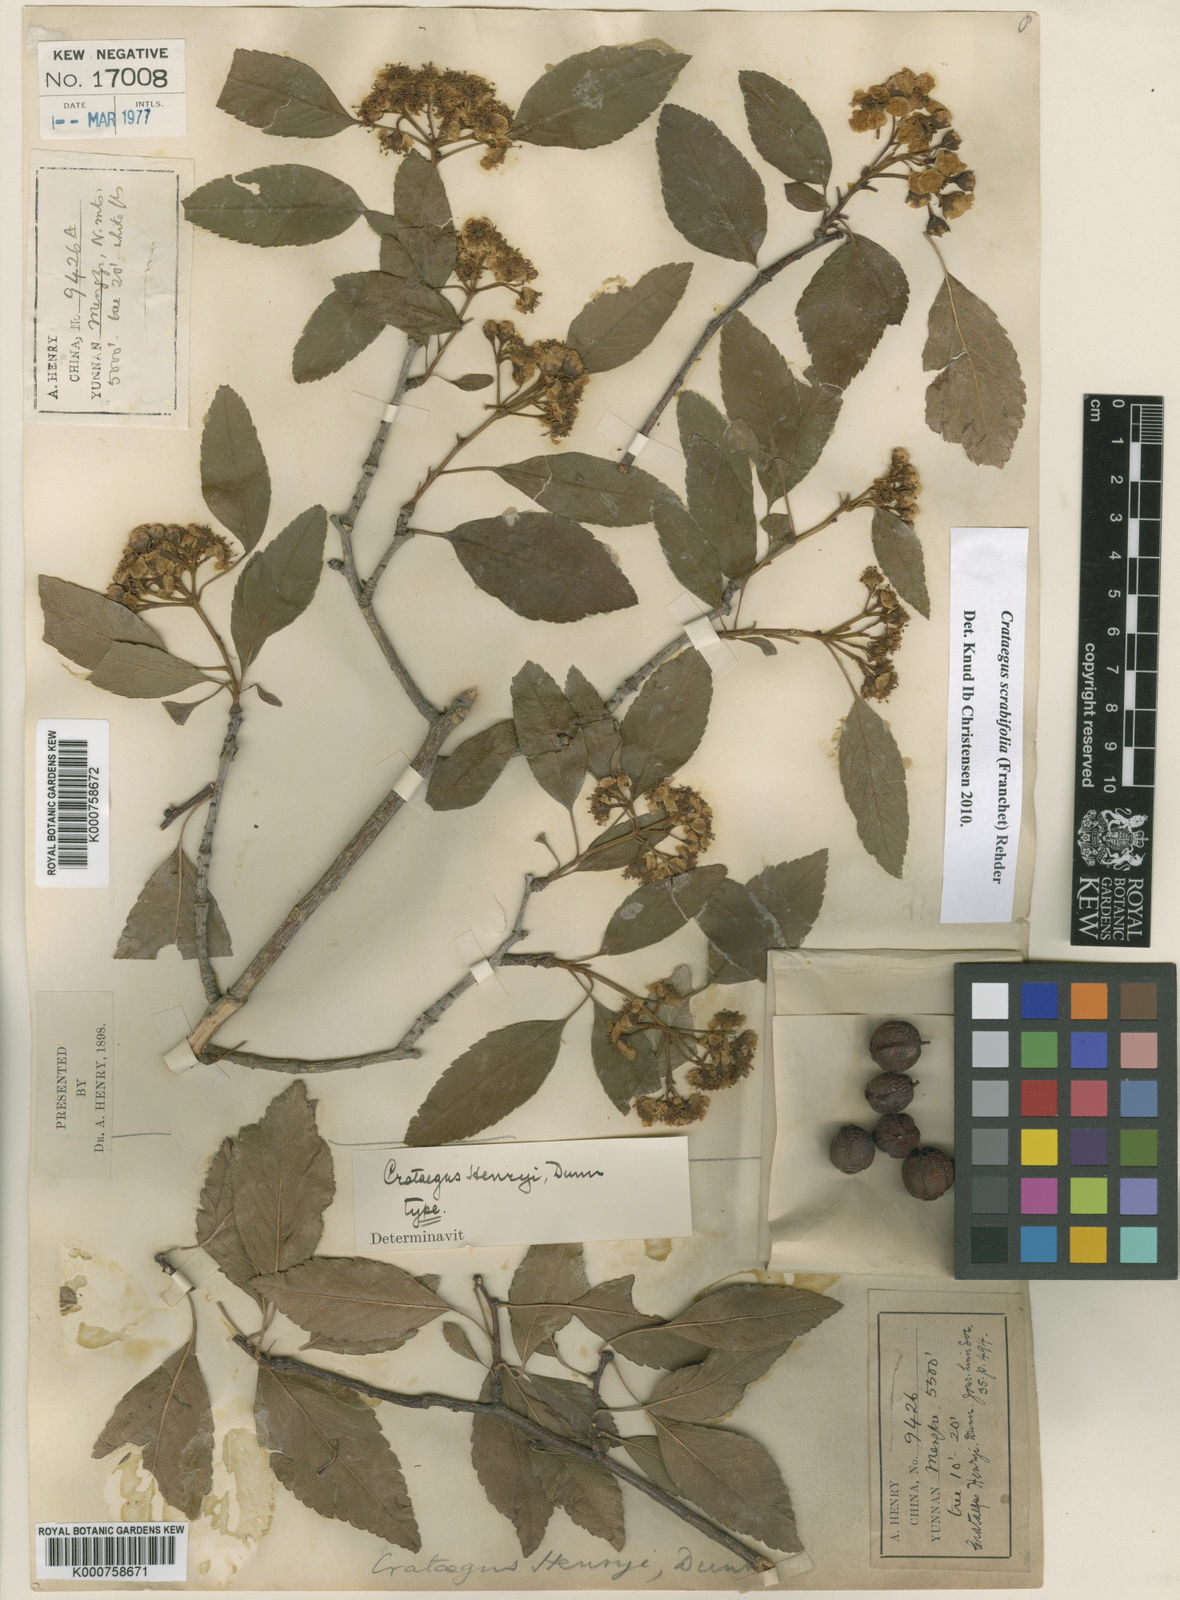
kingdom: Plantae
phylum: Tracheophyta
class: Magnoliopsida
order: Rosales
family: Rosaceae
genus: Crataegus
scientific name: Crataegus scabrifolia
